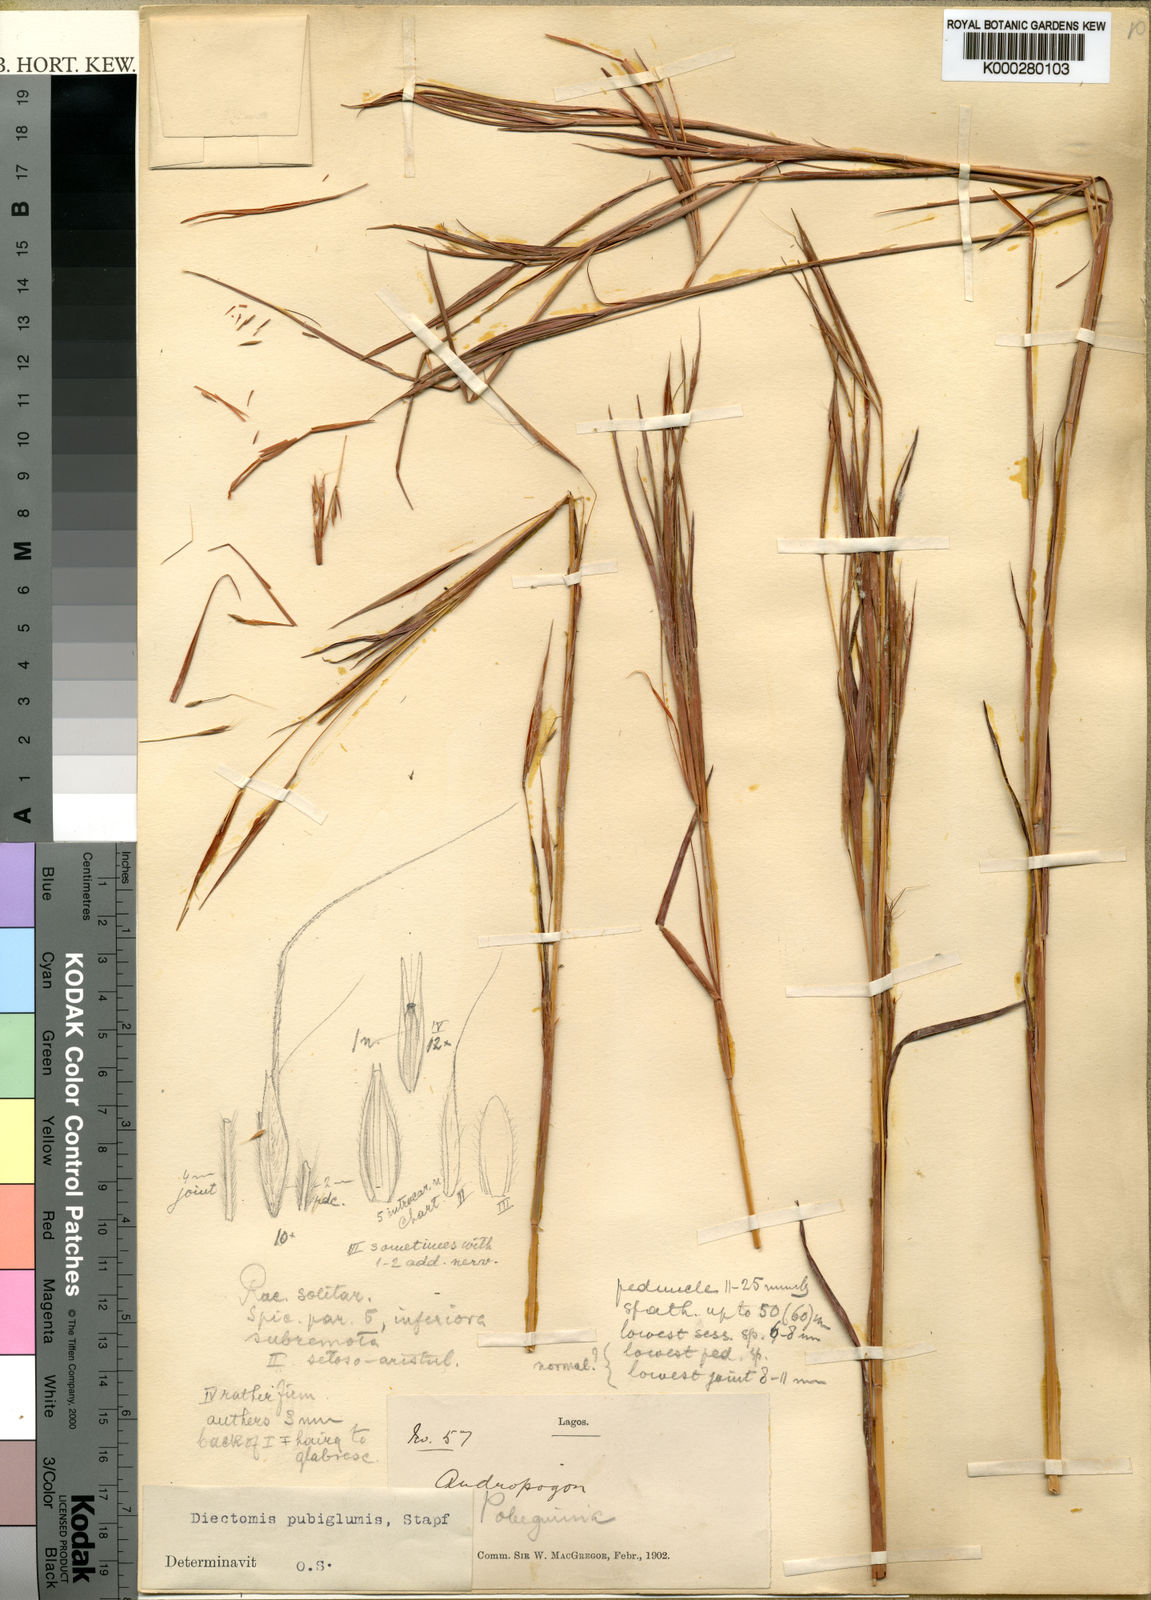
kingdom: Plantae
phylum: Tracheophyta
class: Liliopsida
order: Poales
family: Poaceae
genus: Anadelphia
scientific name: Anadelphia leptocoma
